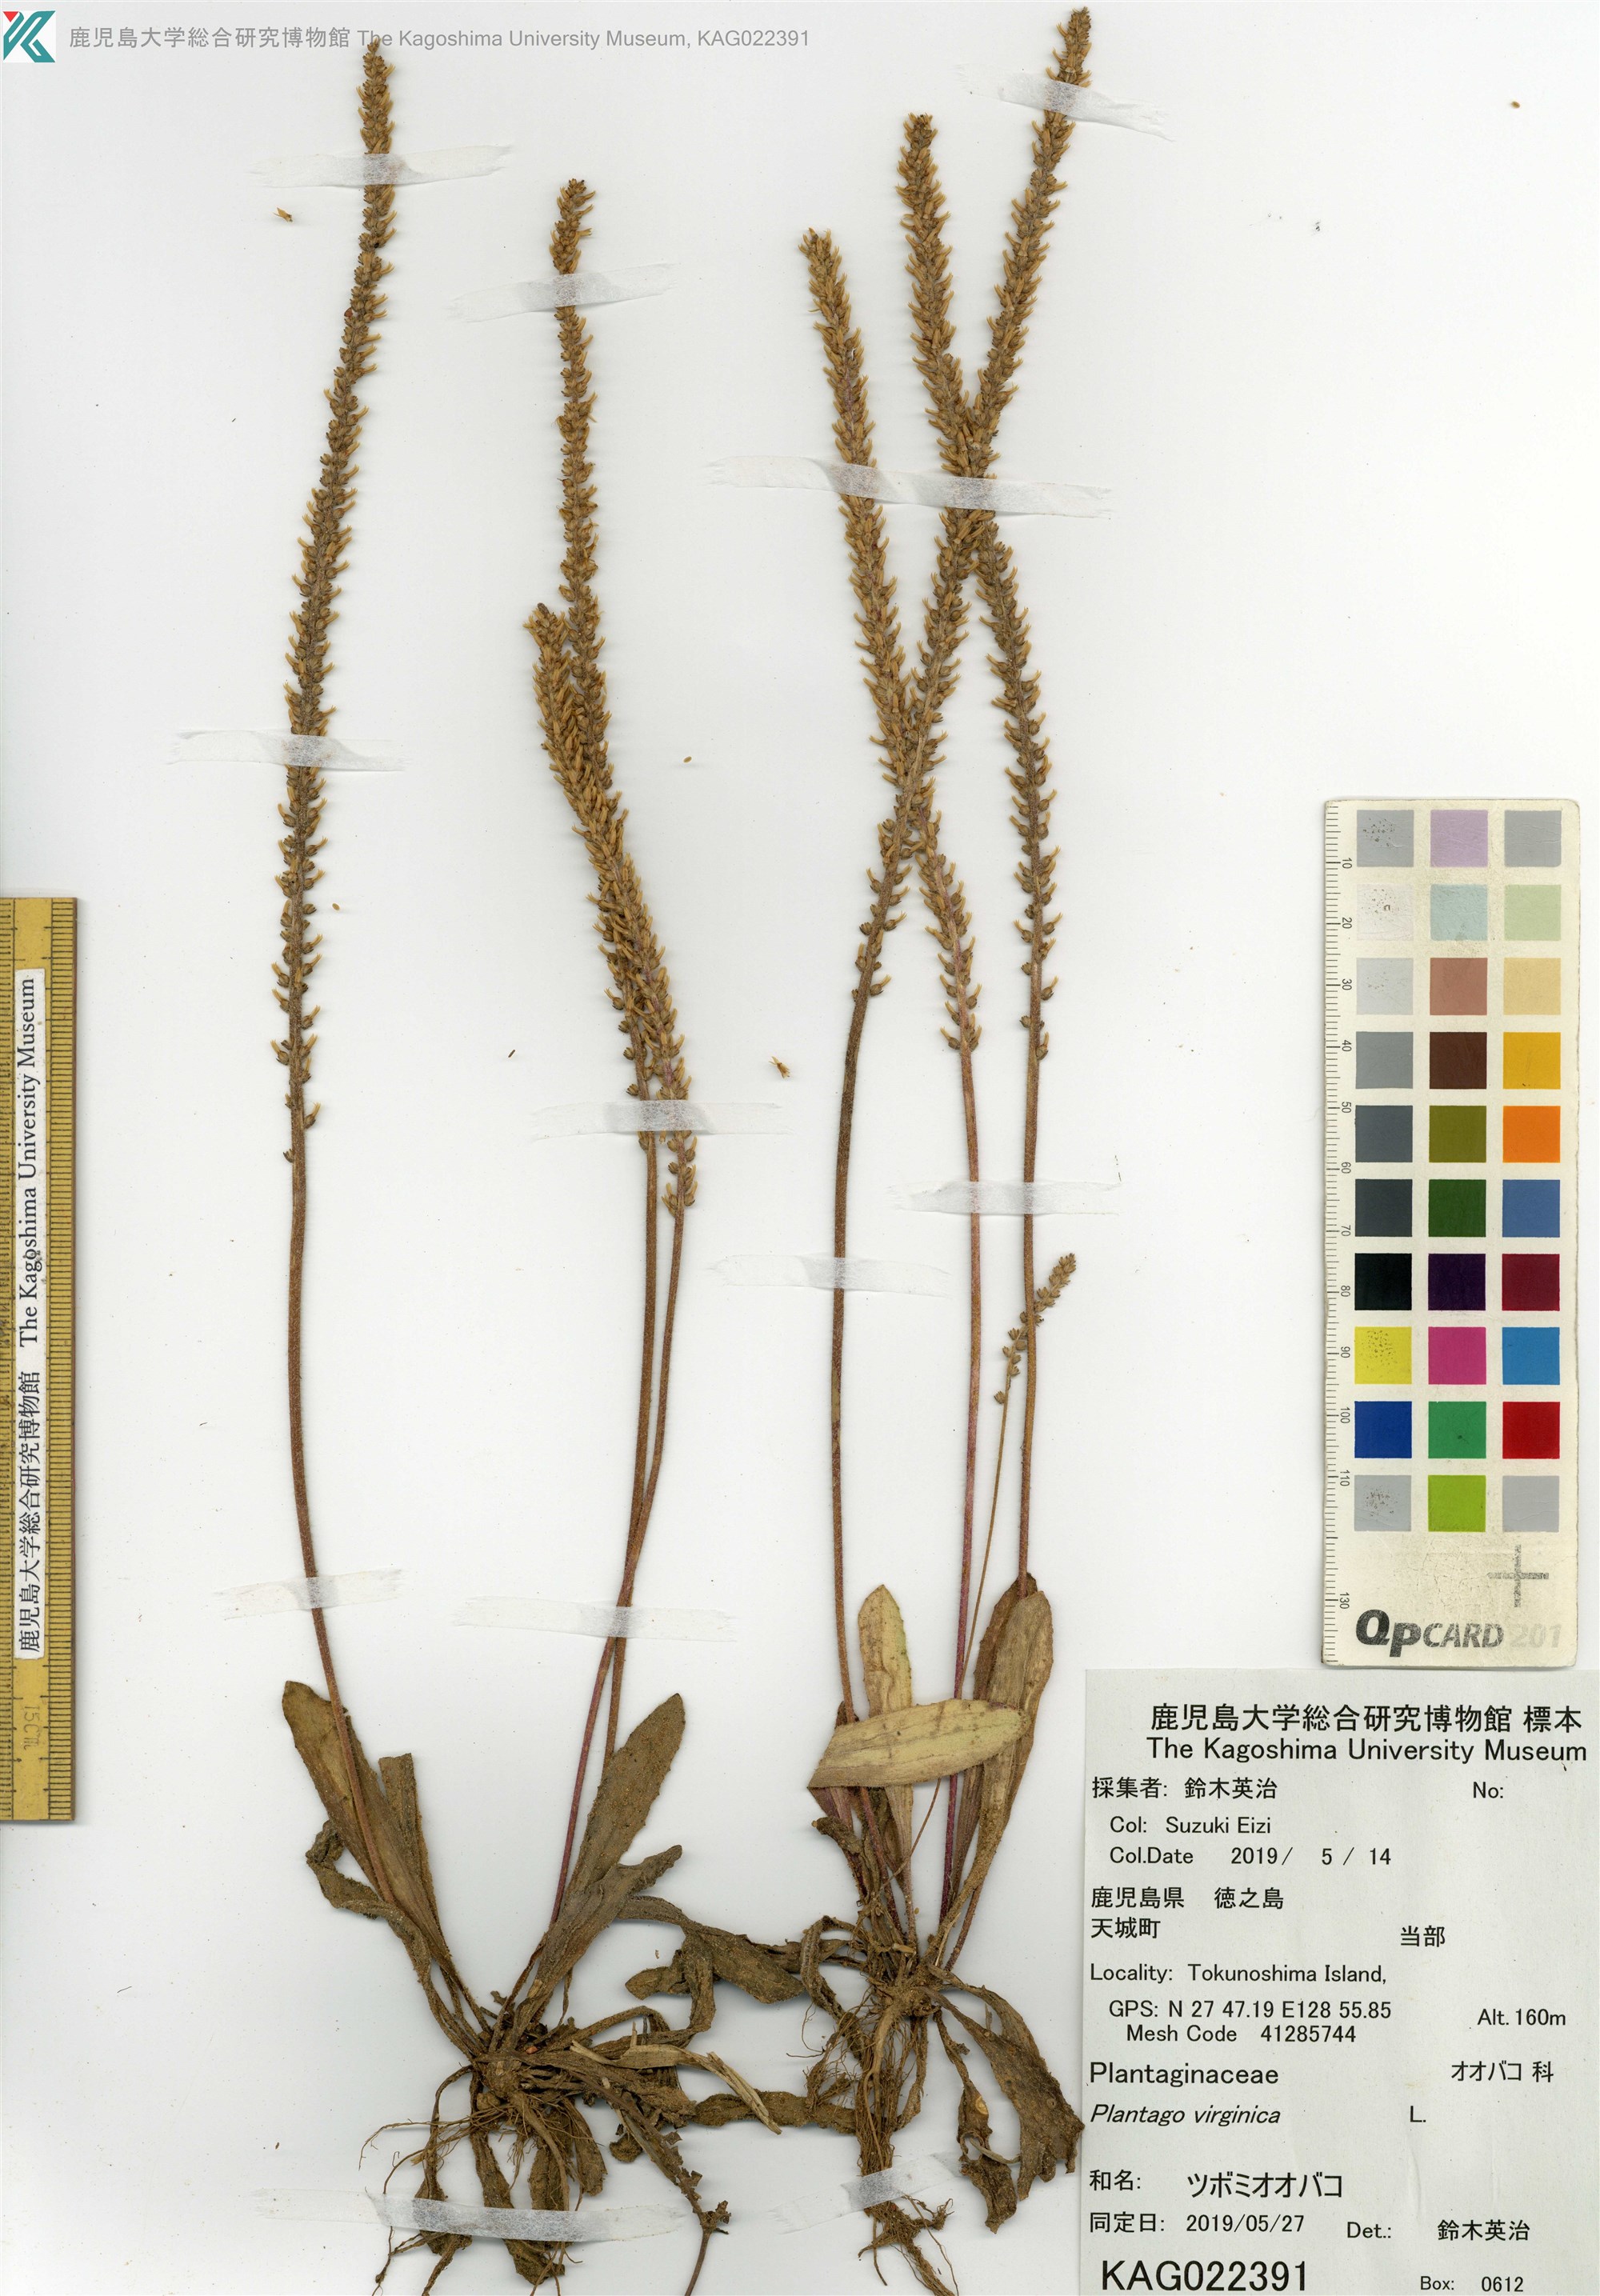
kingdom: Plantae
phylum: Tracheophyta
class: Magnoliopsida
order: Lamiales
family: Plantaginaceae
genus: Plantago
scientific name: Plantago virginica
